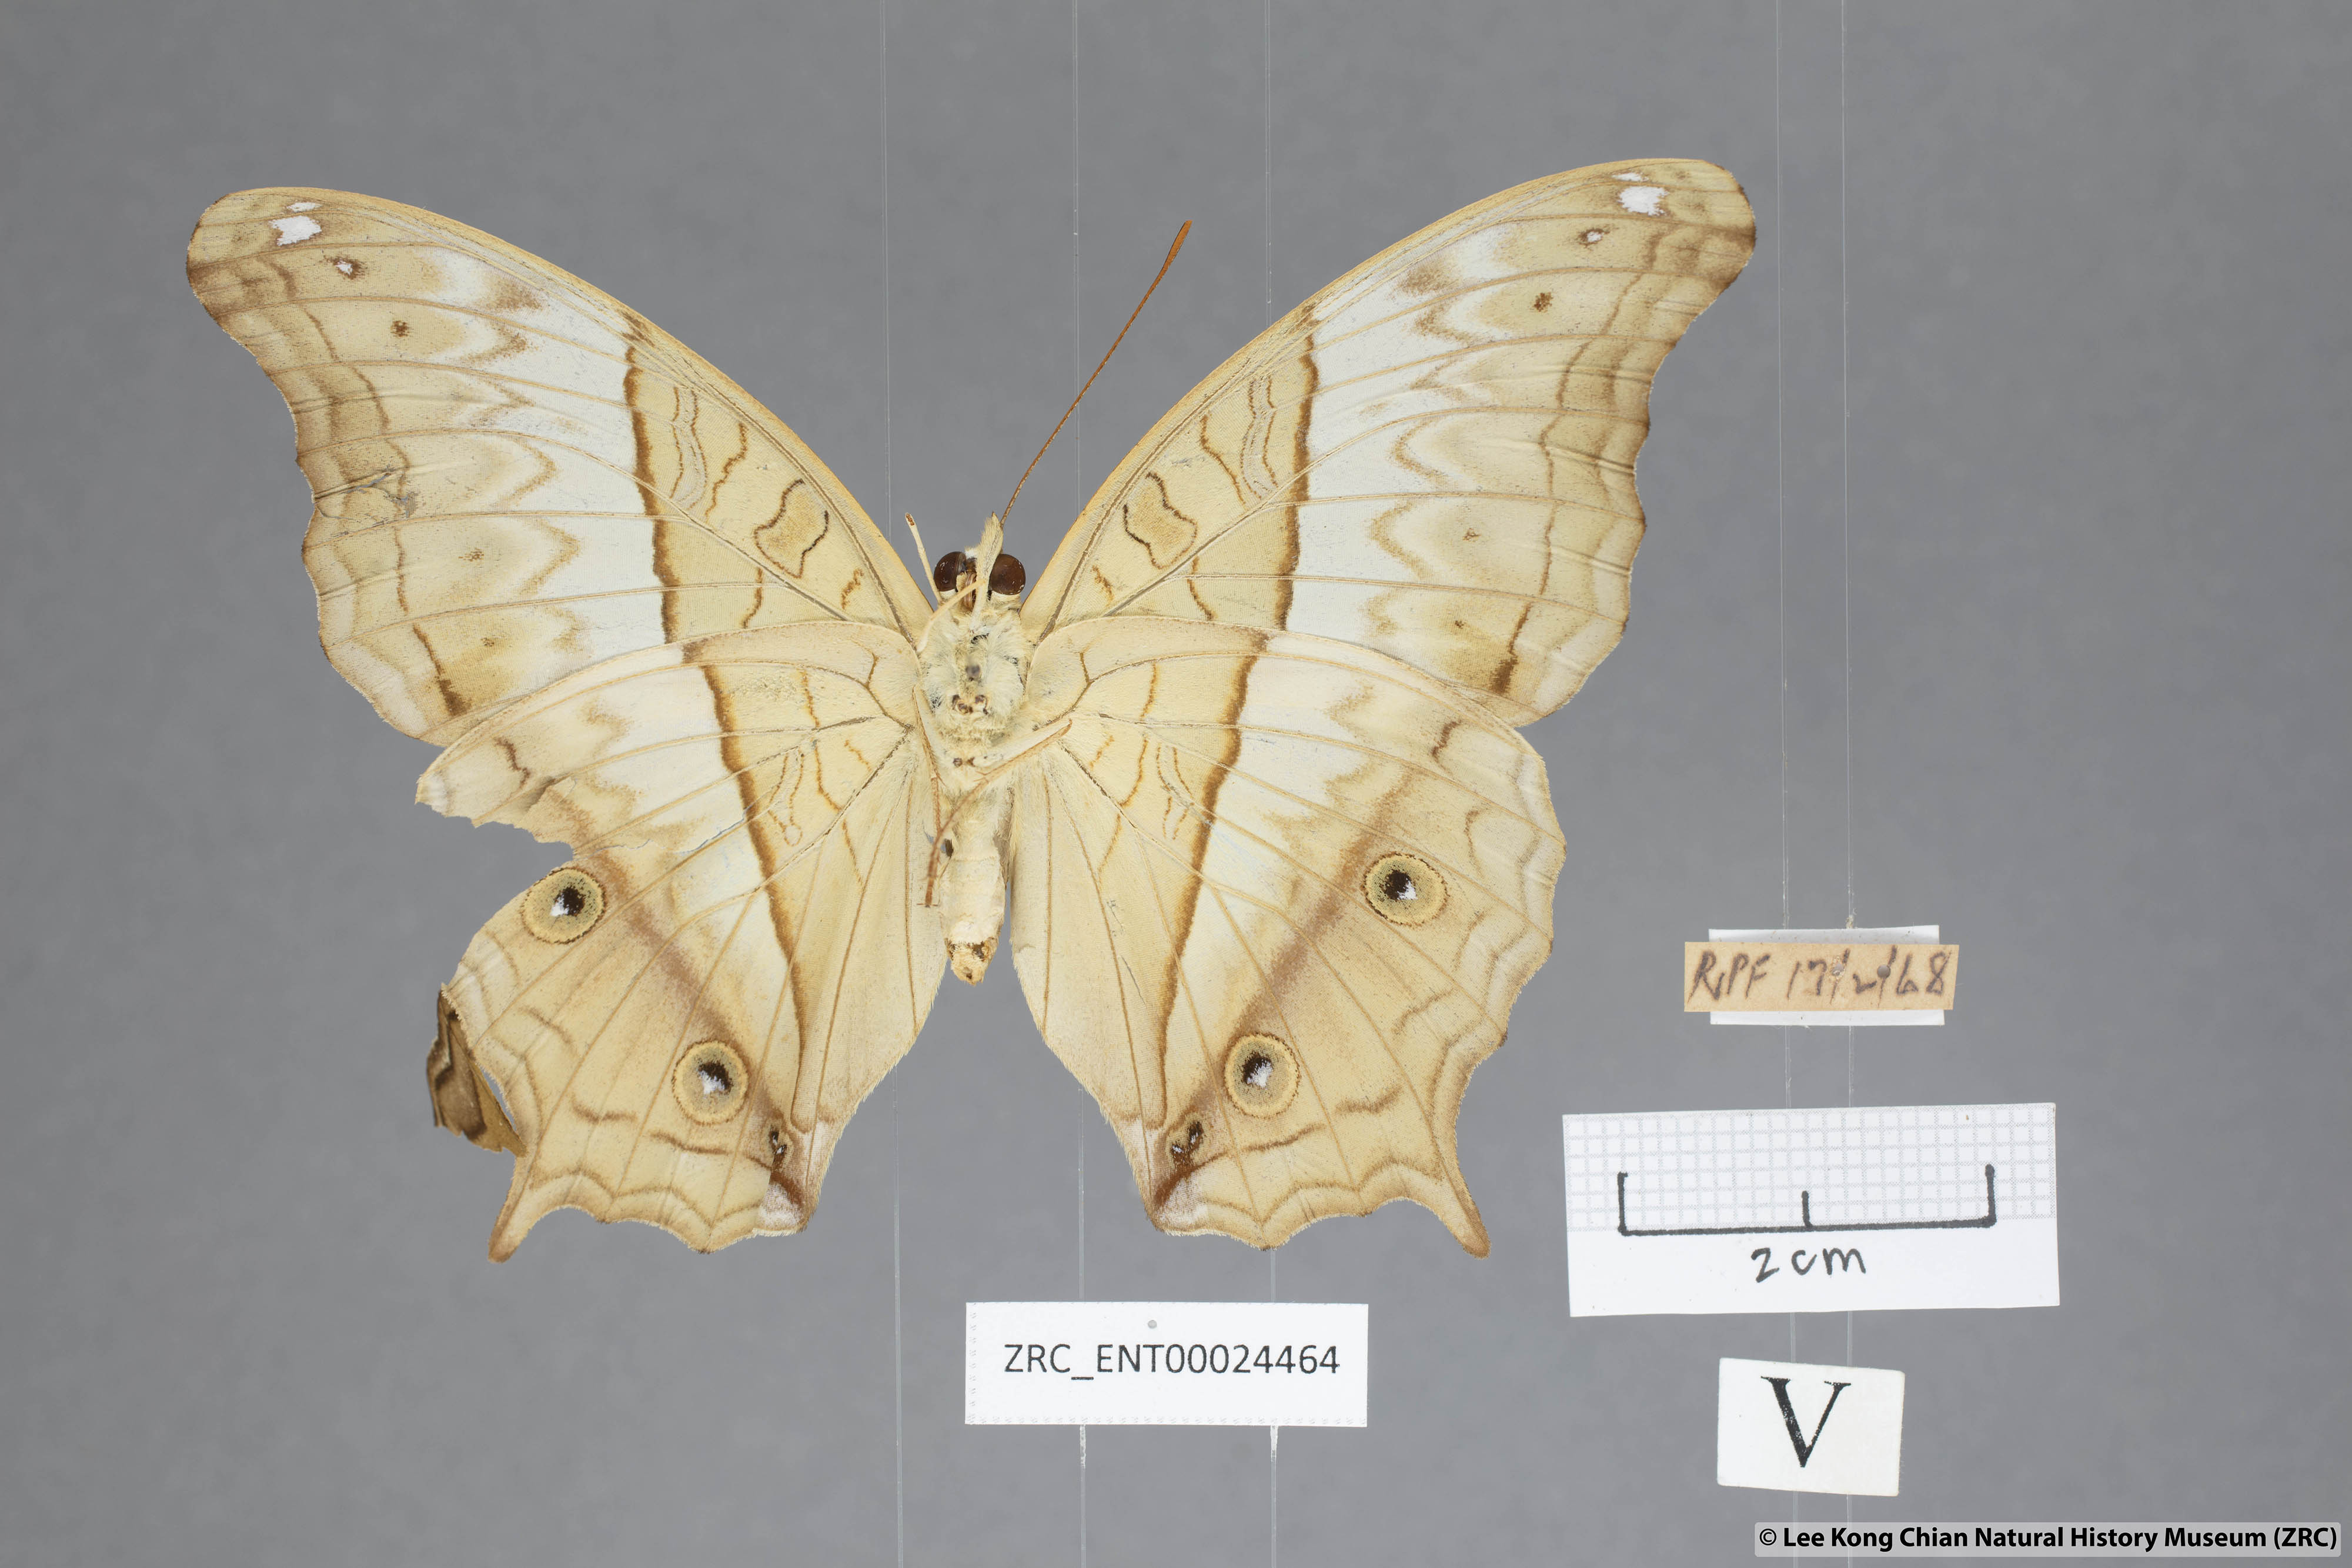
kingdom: Animalia
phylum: Arthropoda
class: Insecta
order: Lepidoptera
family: Nymphalidae
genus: Vindula
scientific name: Vindula deione
